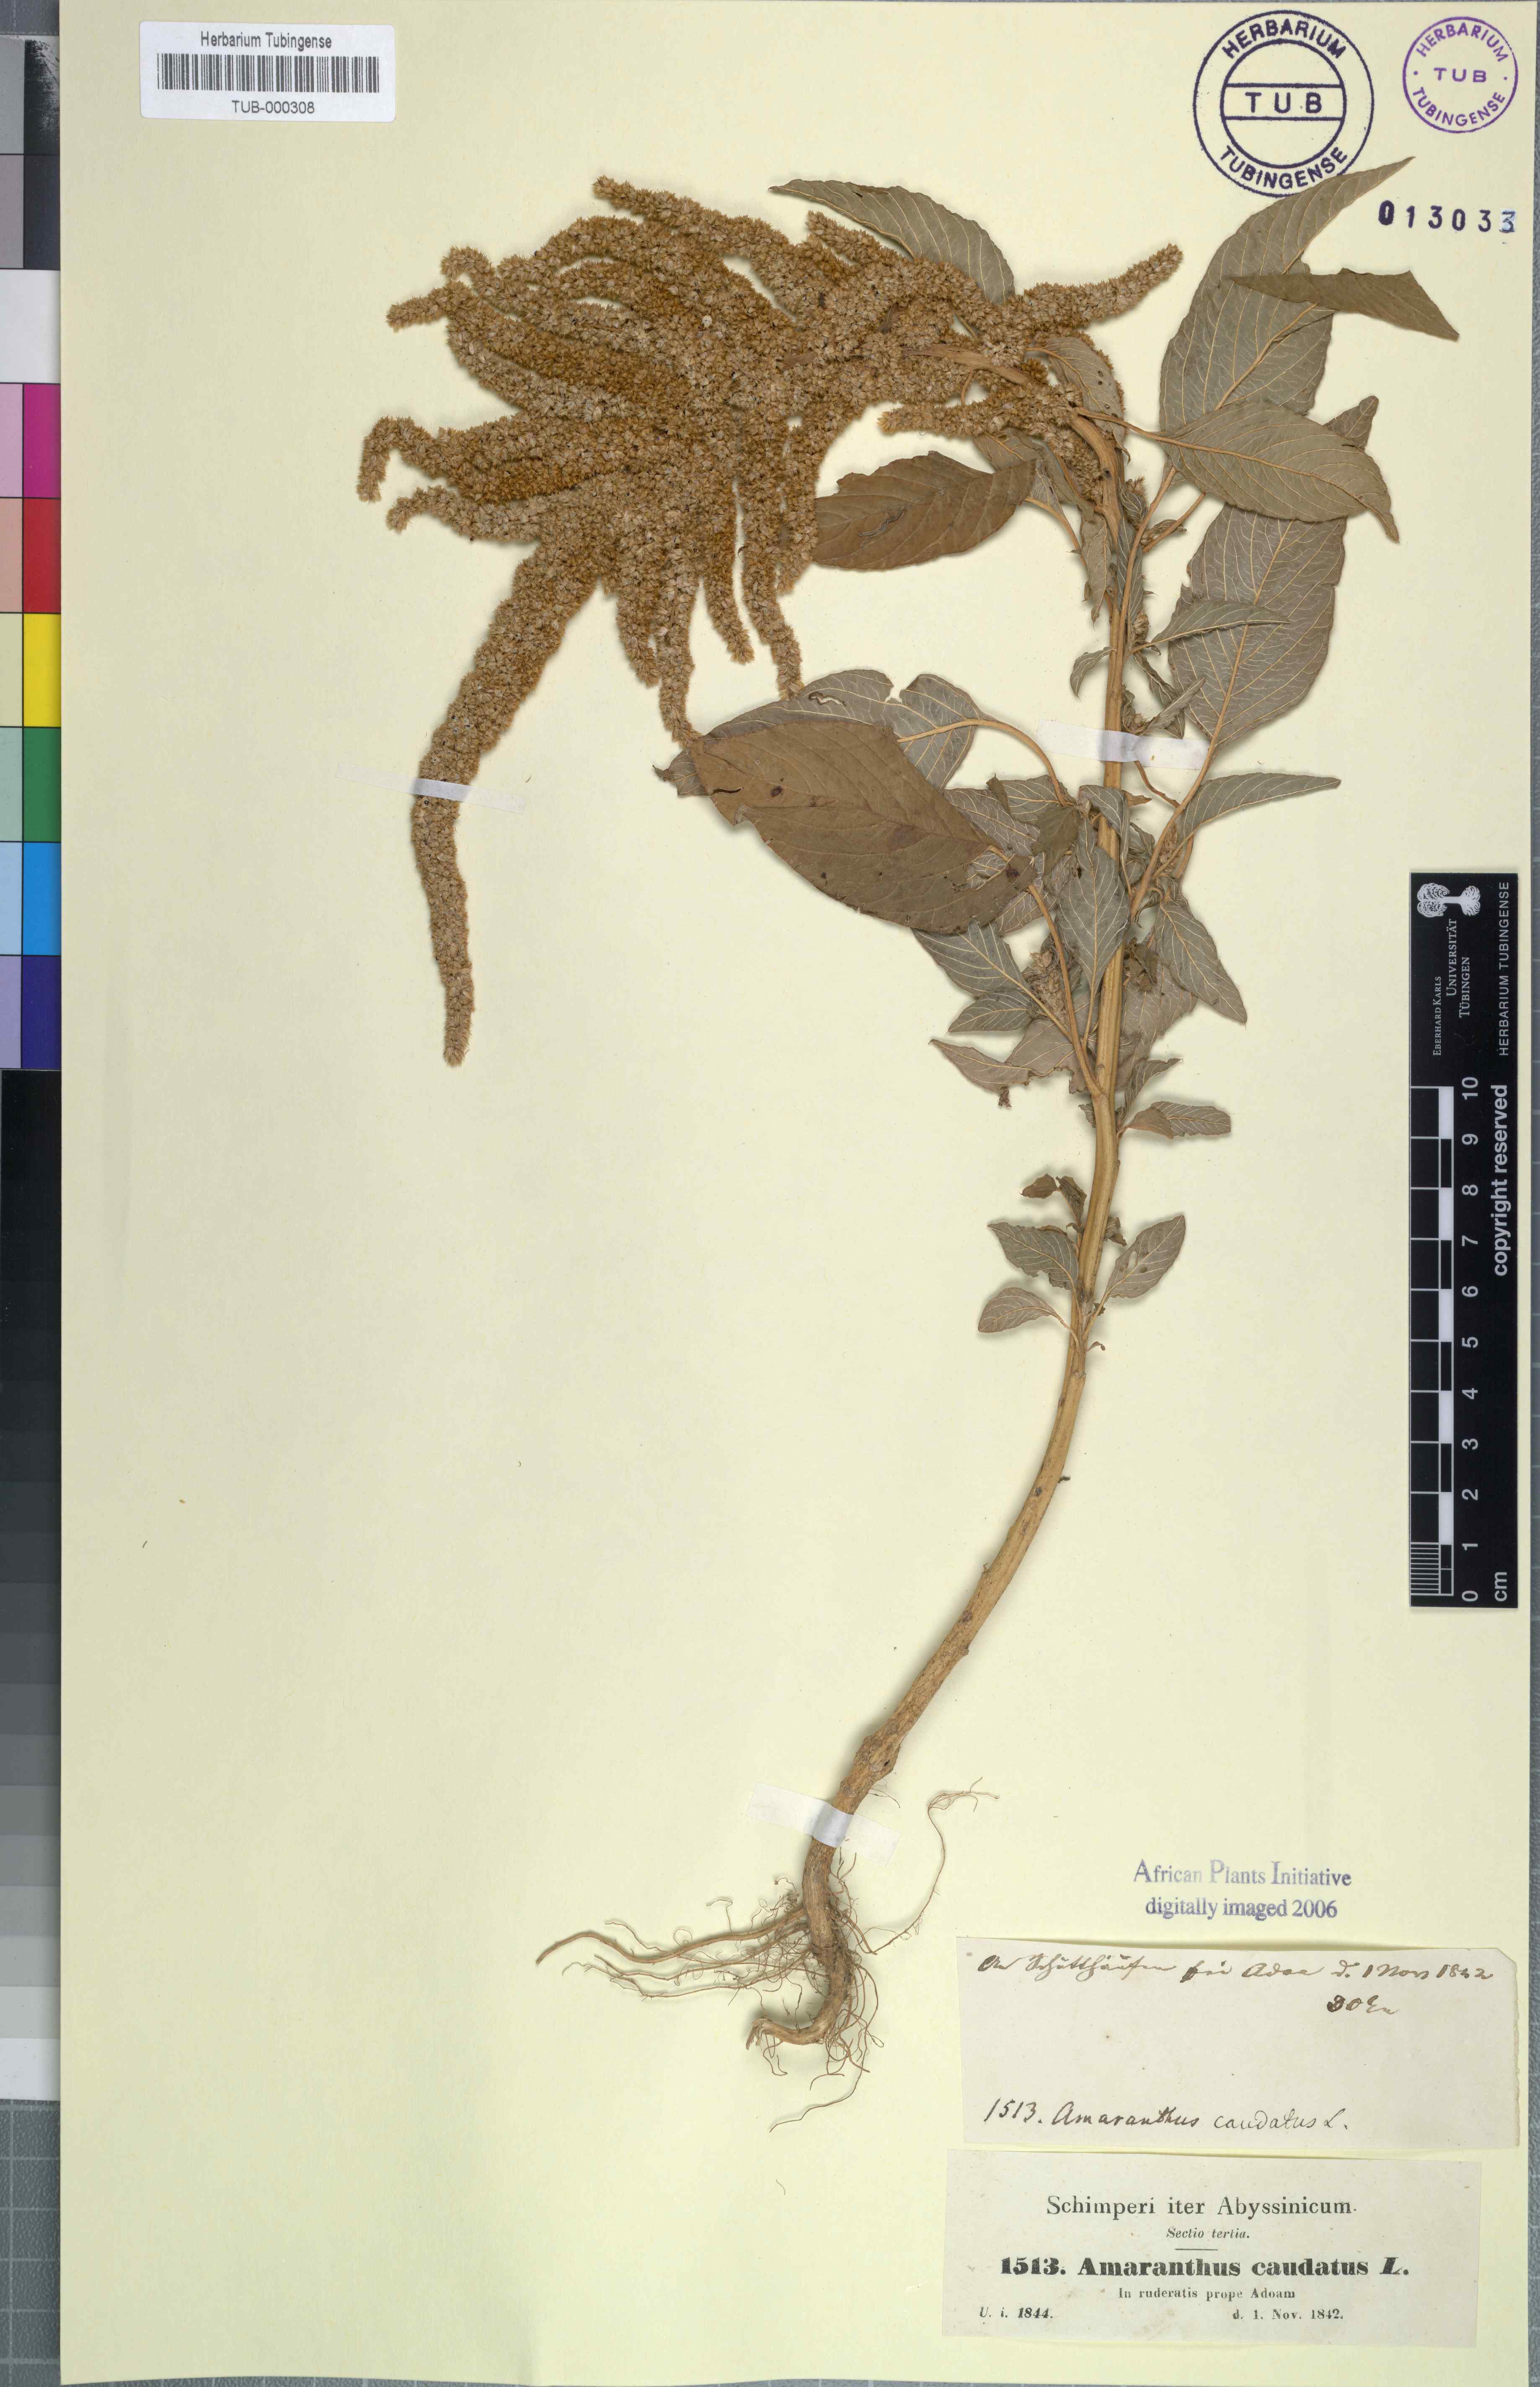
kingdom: Plantae
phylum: Tracheophyta
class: Magnoliopsida
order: Caryophyllales
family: Amaranthaceae
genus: Amaranthus
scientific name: Amaranthus caudatus
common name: Love-lies-bleeding
